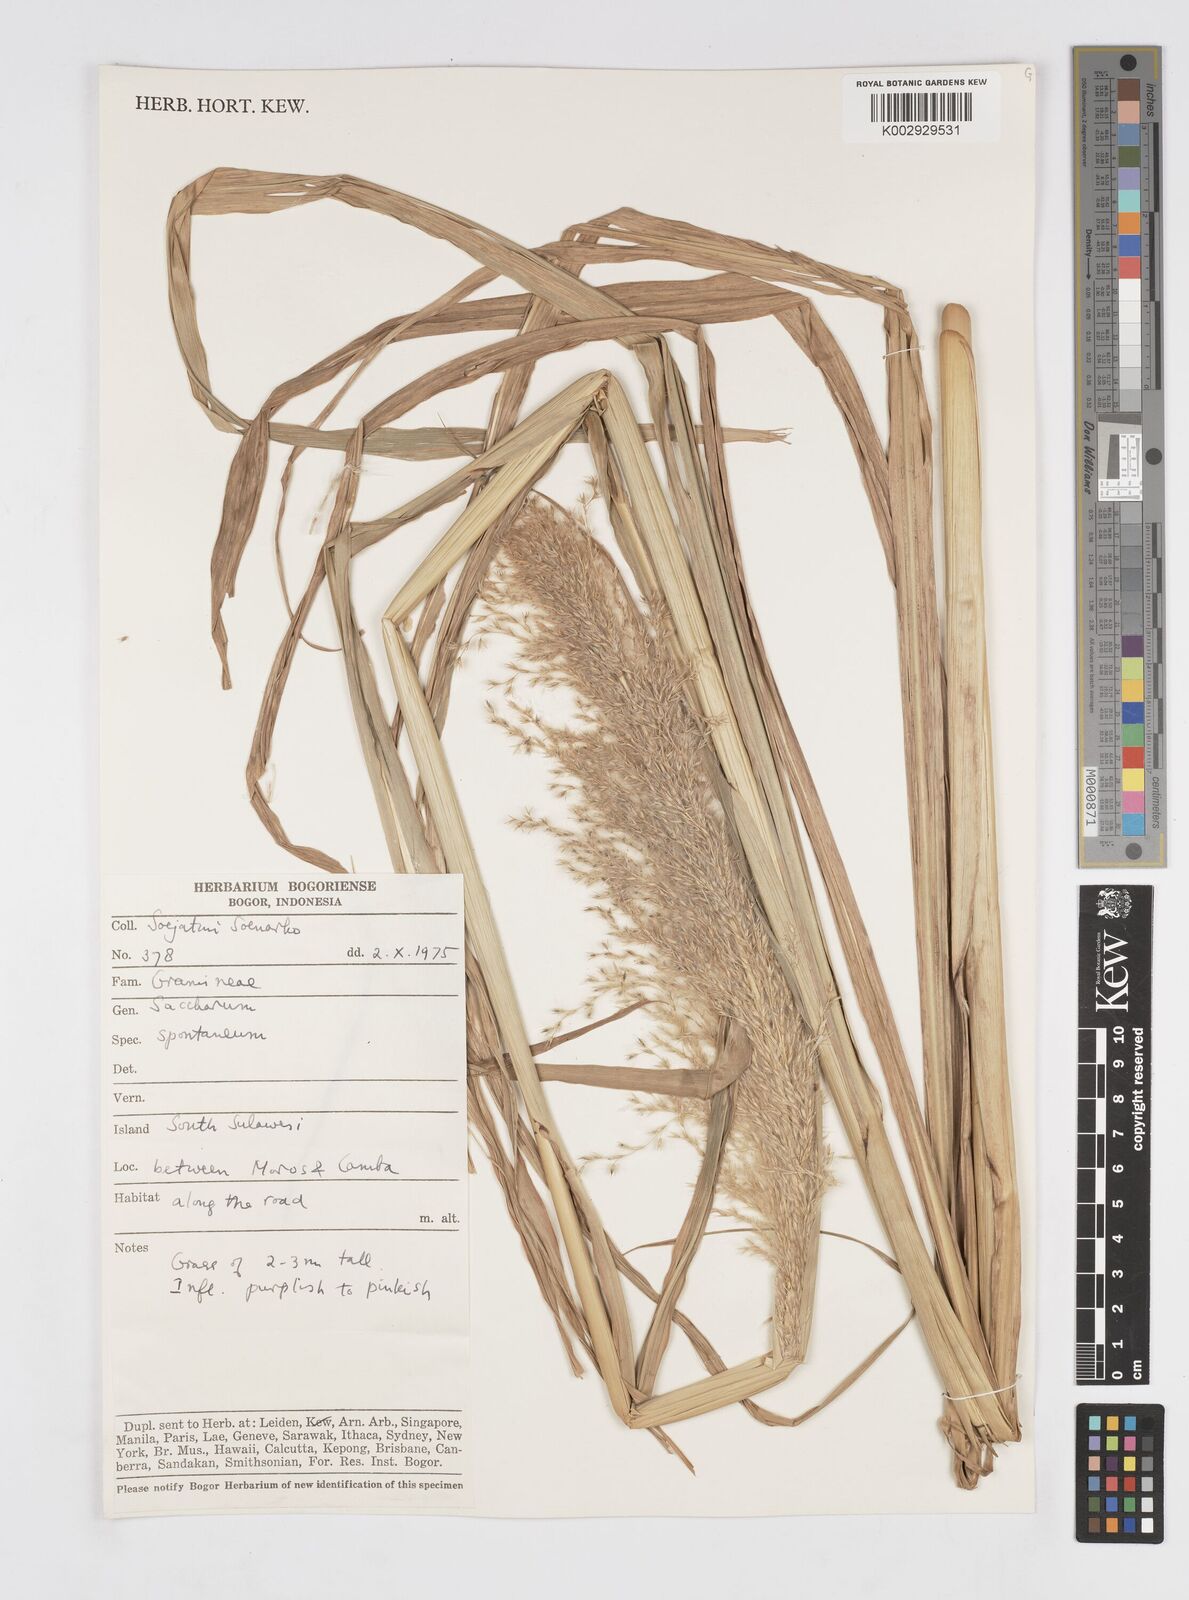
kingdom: Plantae
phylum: Tracheophyta
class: Liliopsida
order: Poales
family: Poaceae
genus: Saccharum
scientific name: Saccharum spontaneum
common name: Wild sugarcane
